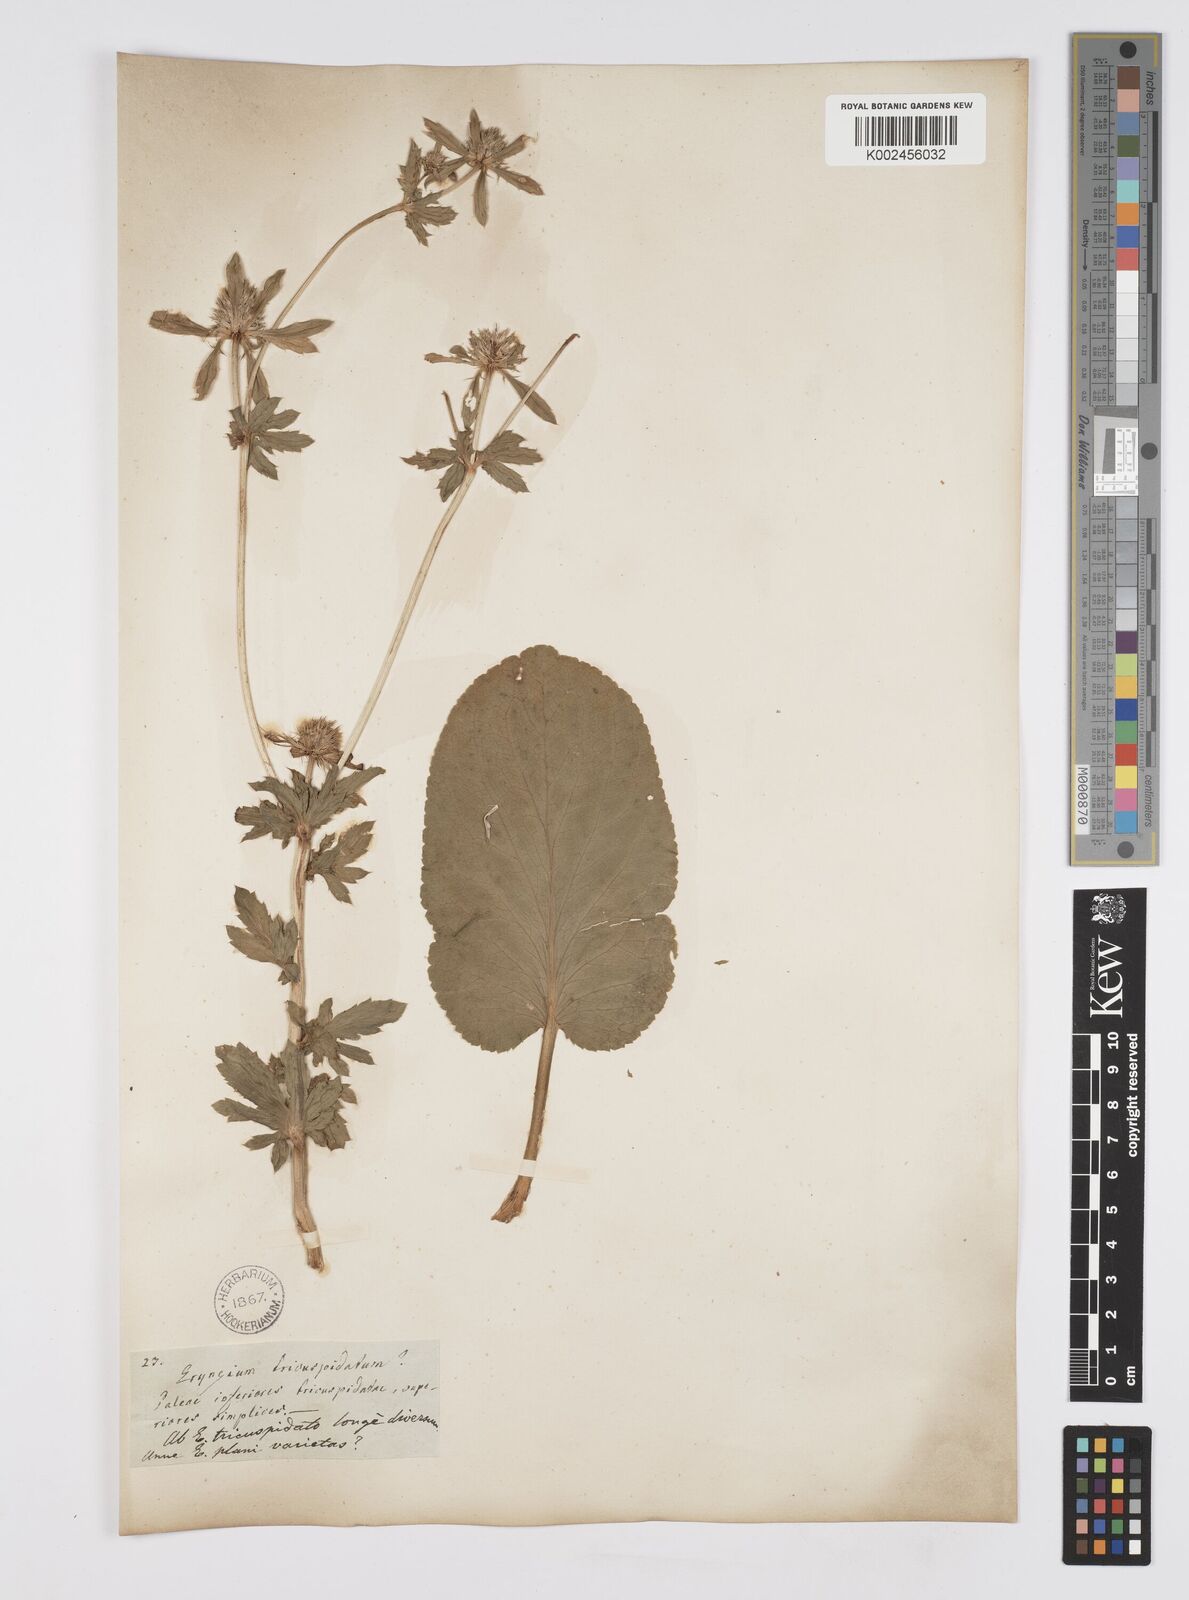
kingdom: Plantae
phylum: Tracheophyta
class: Magnoliopsida
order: Apiales
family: Apiaceae
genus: Eryngium
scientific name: Eryngium planum
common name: Blue eryngo
